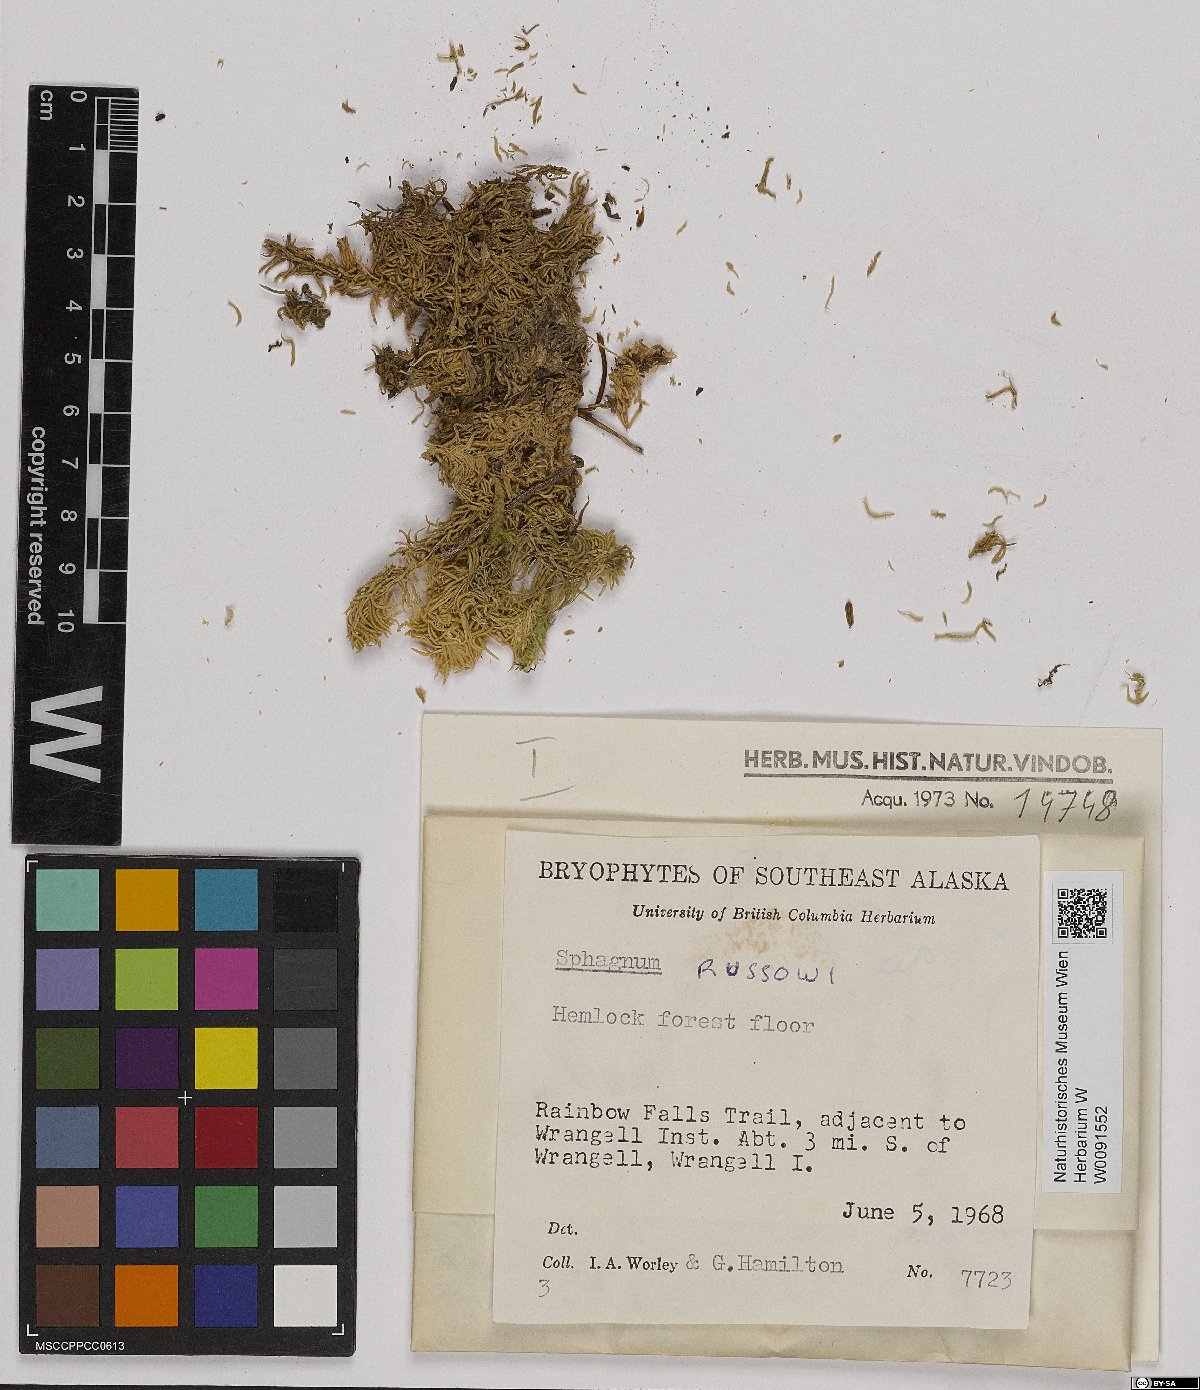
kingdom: Plantae
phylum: Bryophyta
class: Sphagnopsida
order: Sphagnales
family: Sphagnaceae
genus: Sphagnum
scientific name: Sphagnum russowii
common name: Russow's peat moss
